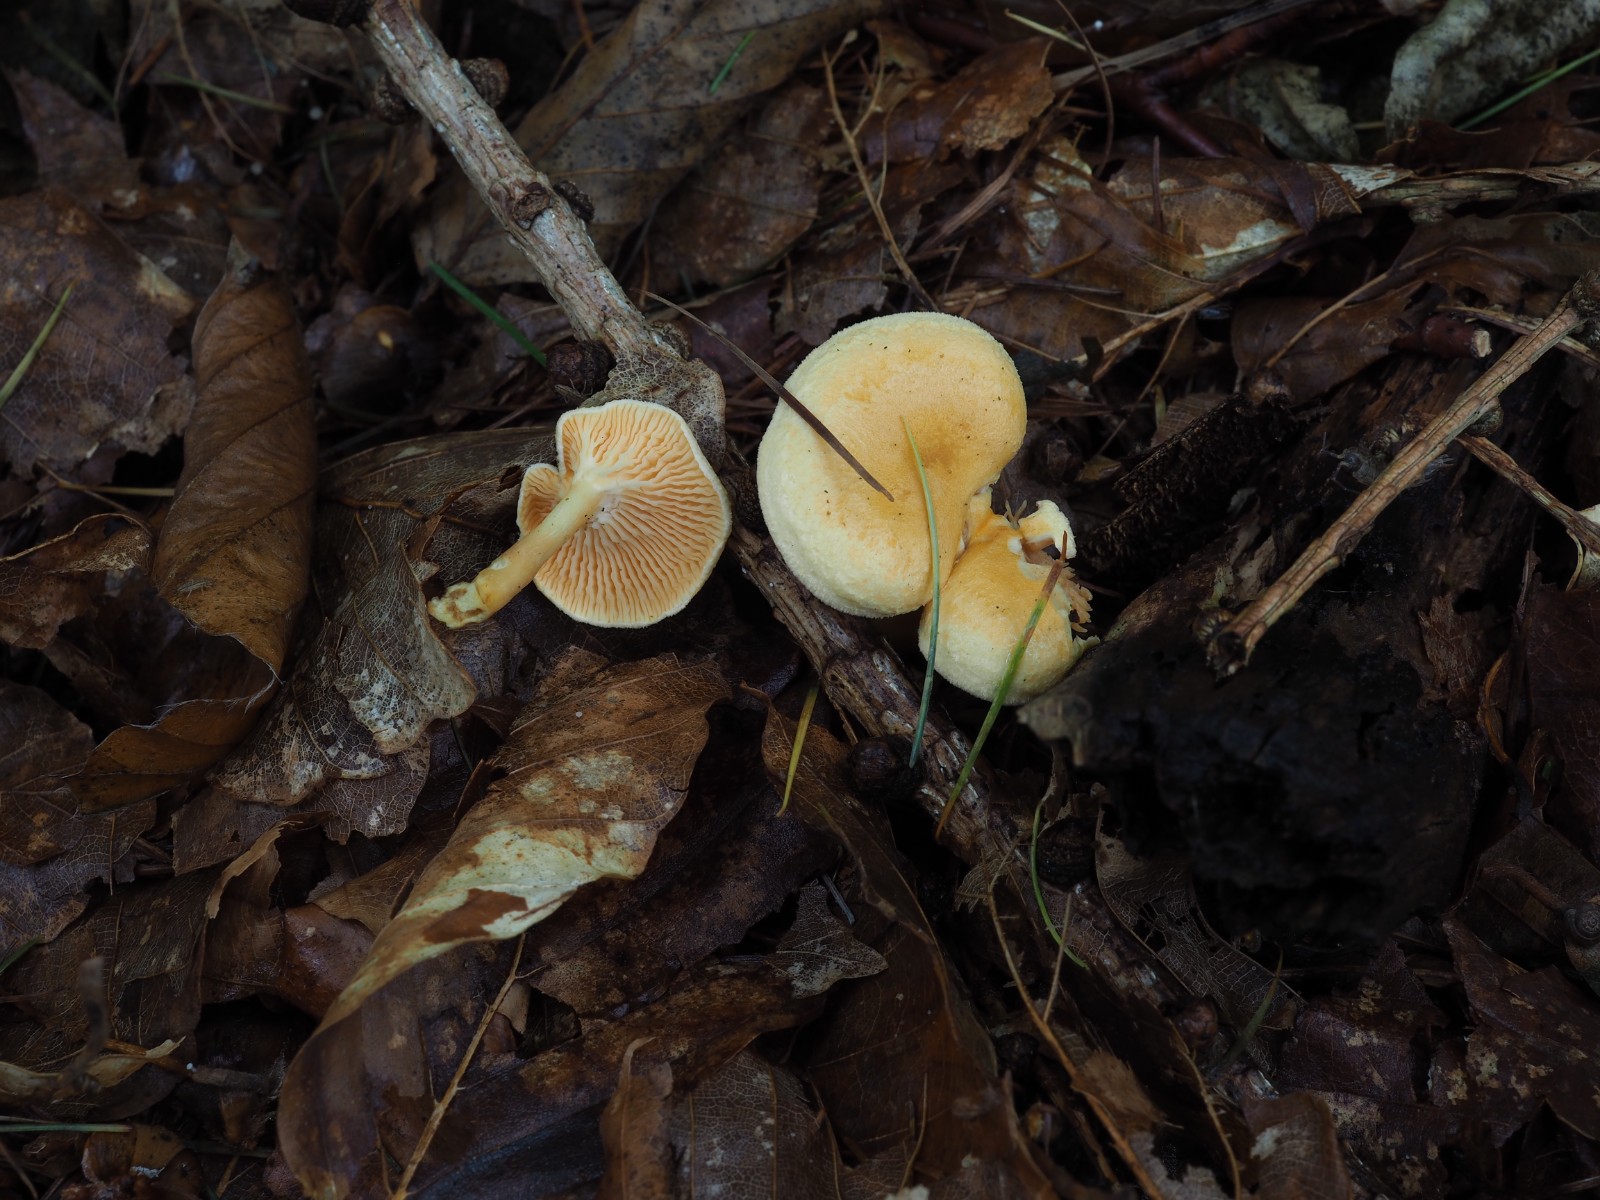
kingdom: Fungi
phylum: Basidiomycota
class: Agaricomycetes
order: Boletales
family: Hygrophoropsidaceae
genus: Hygrophoropsis
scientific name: Hygrophoropsis aurantiaca
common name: almindelig orangekantarel
